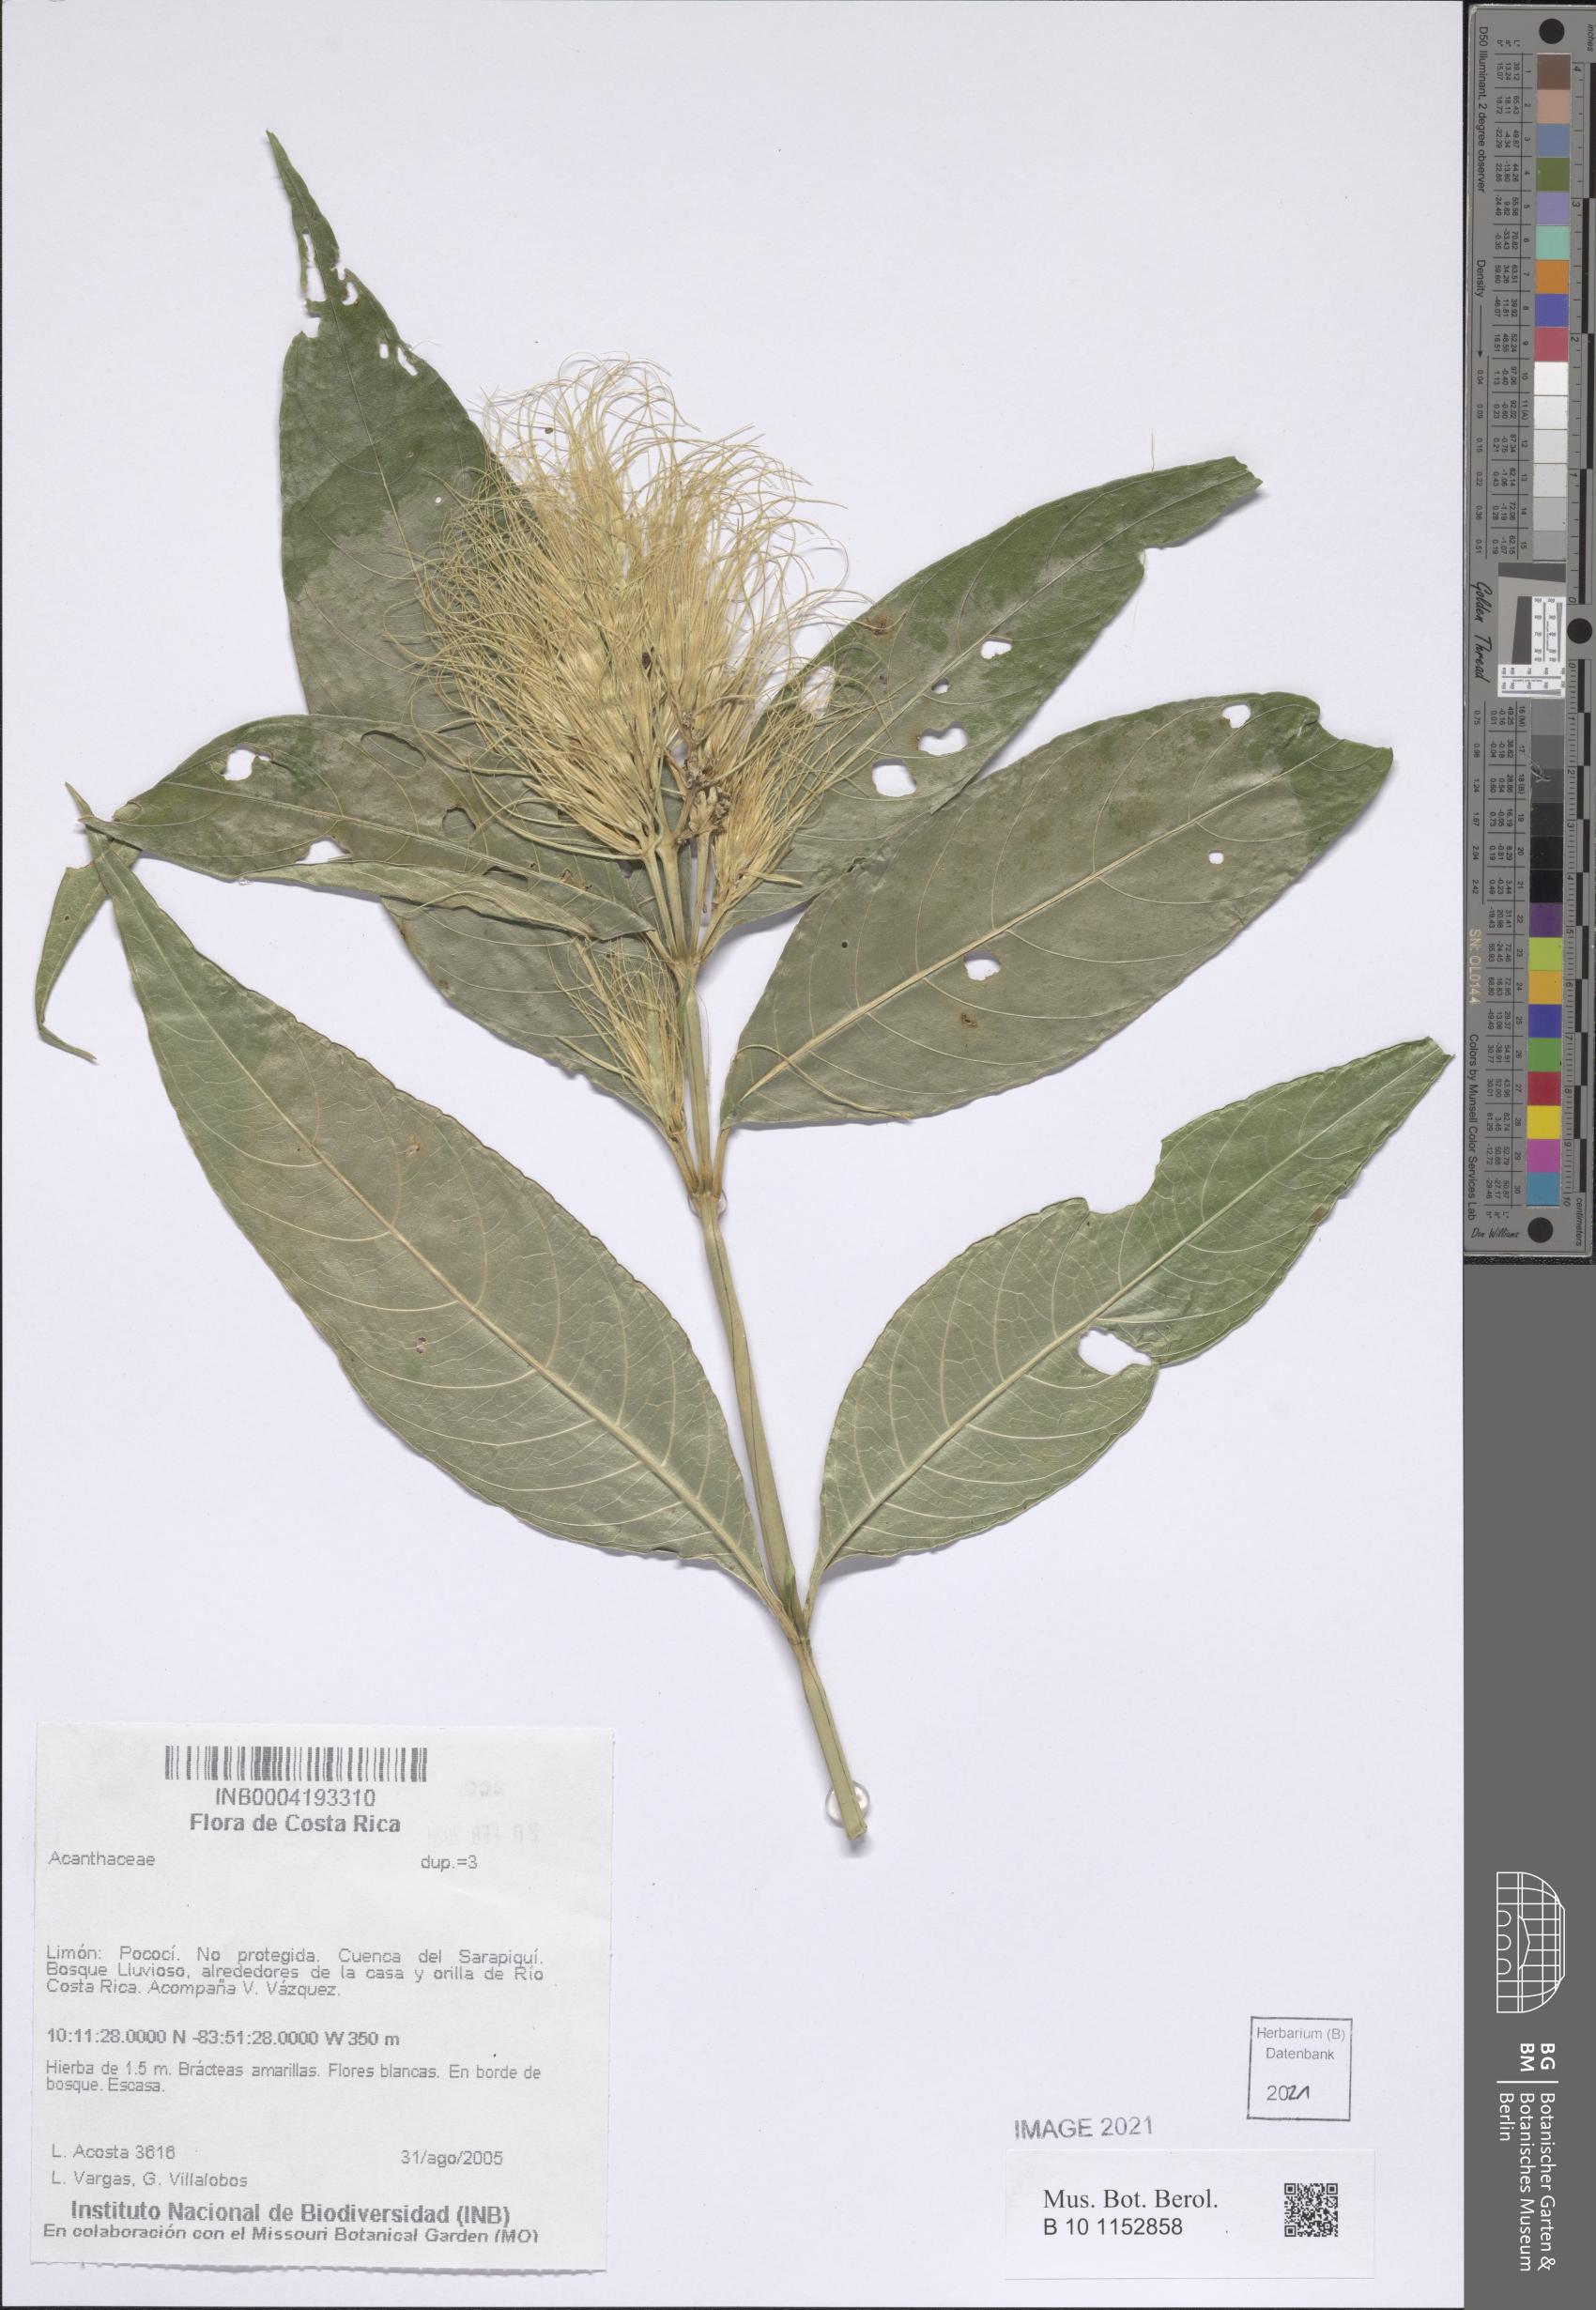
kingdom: Plantae
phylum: Tracheophyta
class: Magnoliopsida
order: Lamiales
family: Acanthaceae
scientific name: Acanthaceae
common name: Acanthaceae
